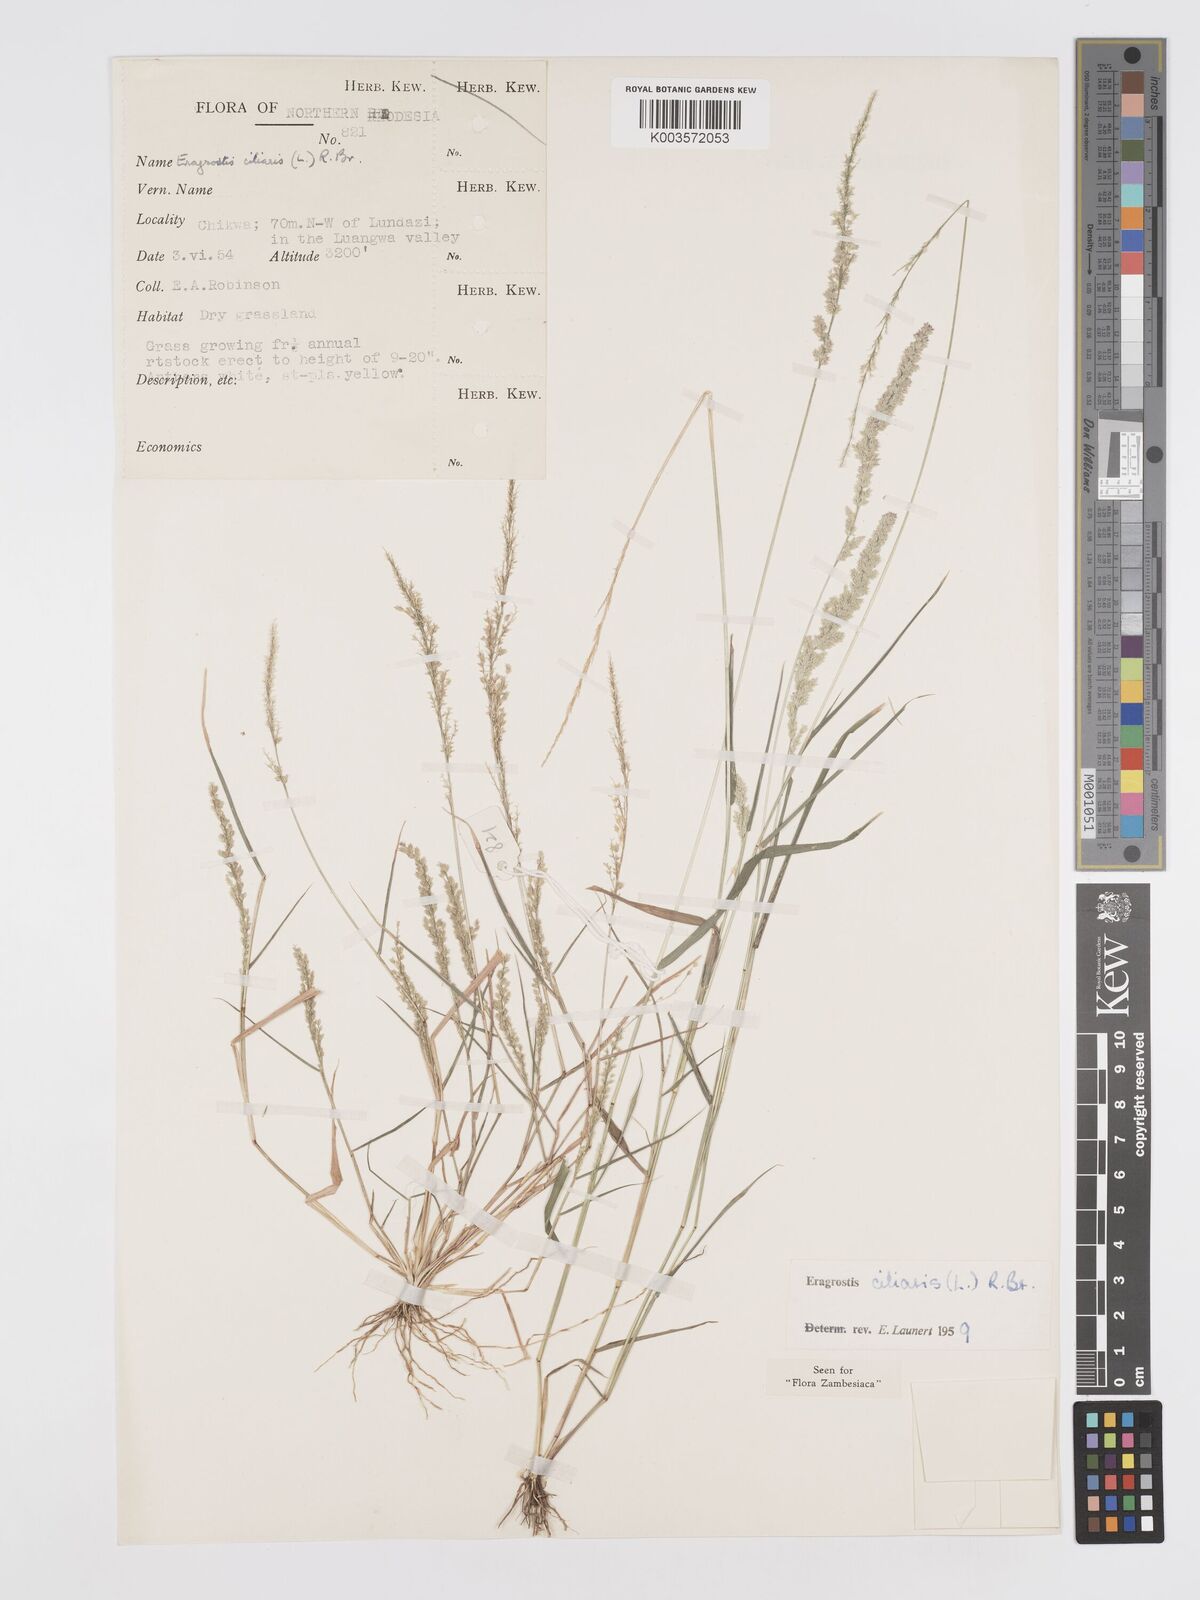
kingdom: Plantae
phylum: Tracheophyta
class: Liliopsida
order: Poales
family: Poaceae
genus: Eragrostis
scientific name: Eragrostis ciliaris
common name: Gophertail lovegrass
